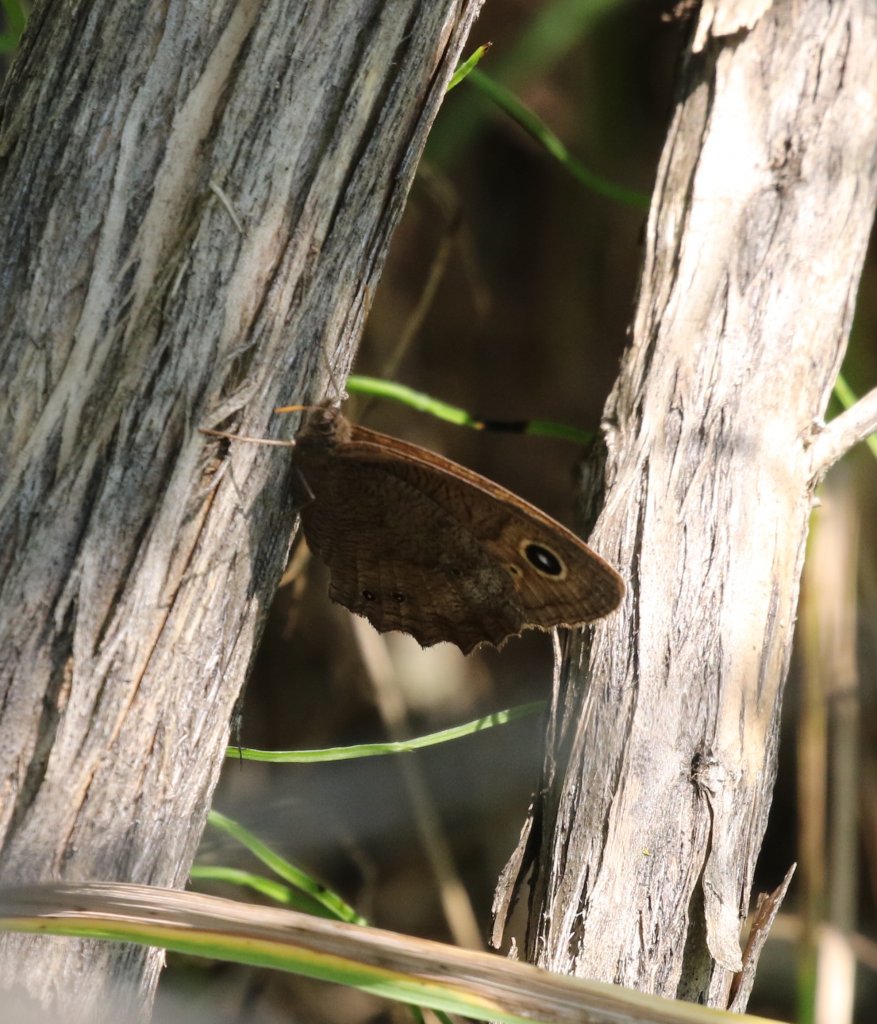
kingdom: Animalia
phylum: Arthropoda
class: Insecta
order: Lepidoptera
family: Nymphalidae
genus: Cercyonis
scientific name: Cercyonis pegala
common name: Common Wood-Nymph
